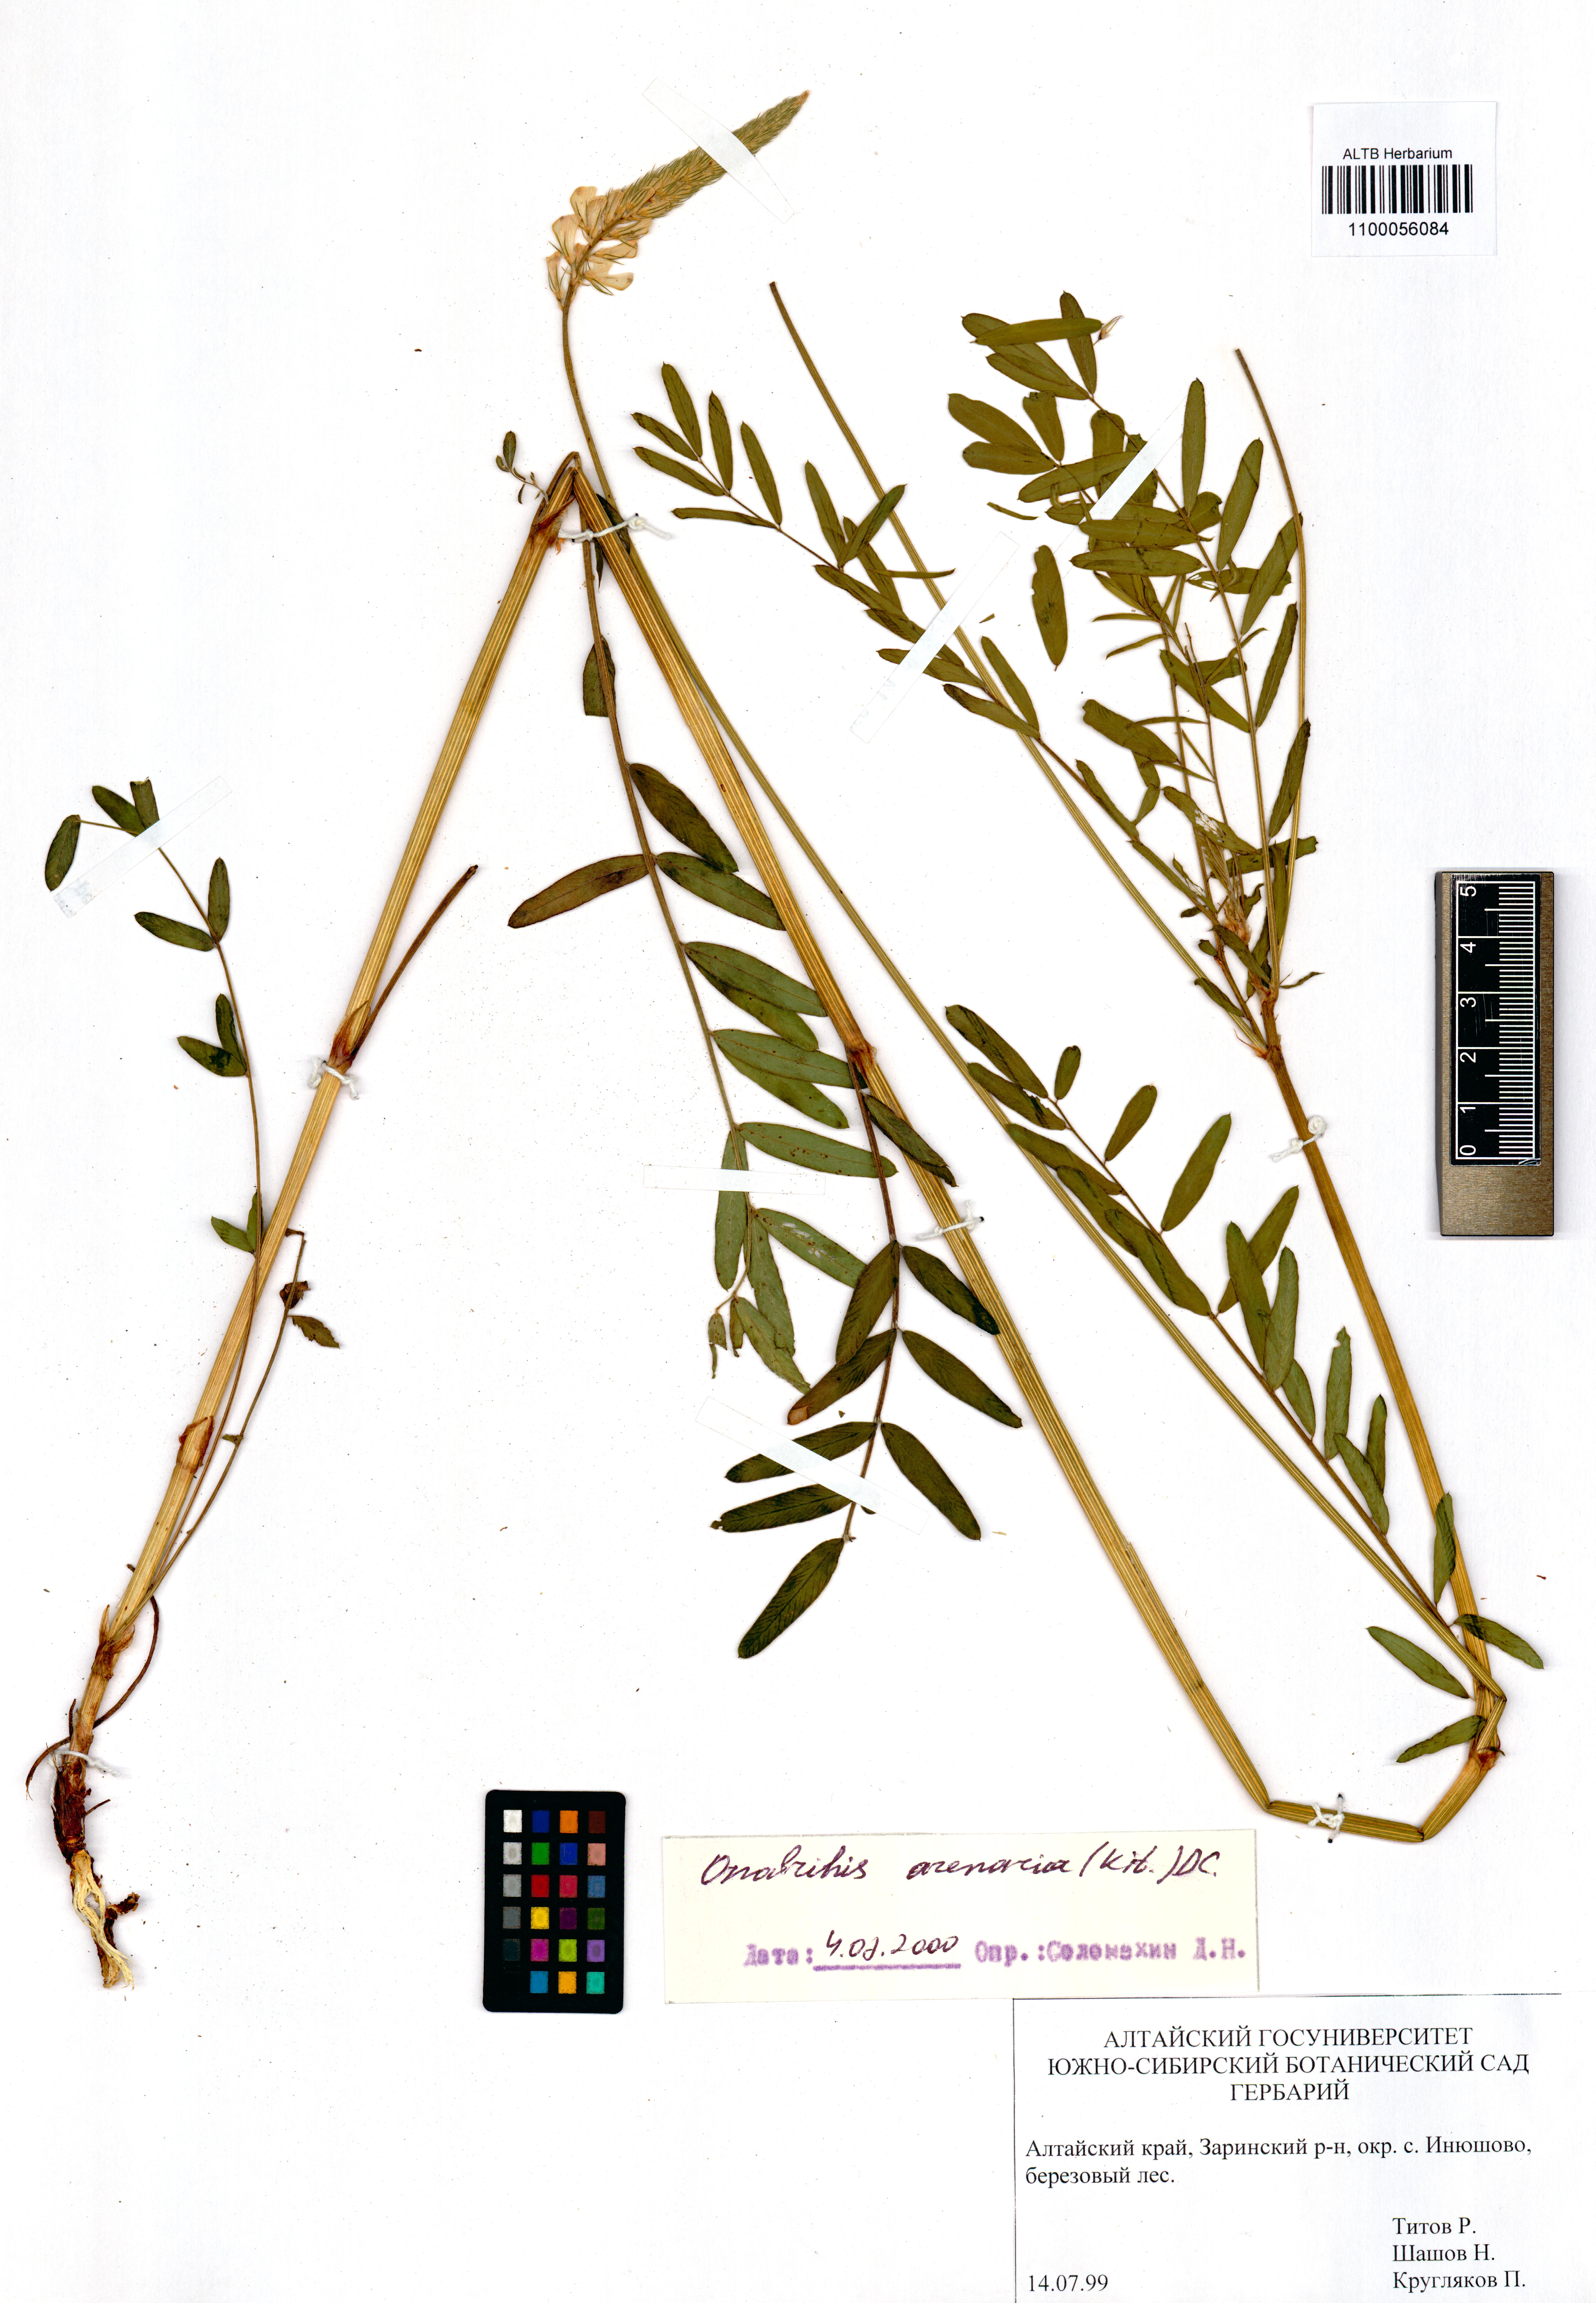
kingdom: Plantae
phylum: Tracheophyta
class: Magnoliopsida
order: Fabales
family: Fabaceae
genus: Onobrychis
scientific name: Onobrychis arenaria
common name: Sand esparcet
